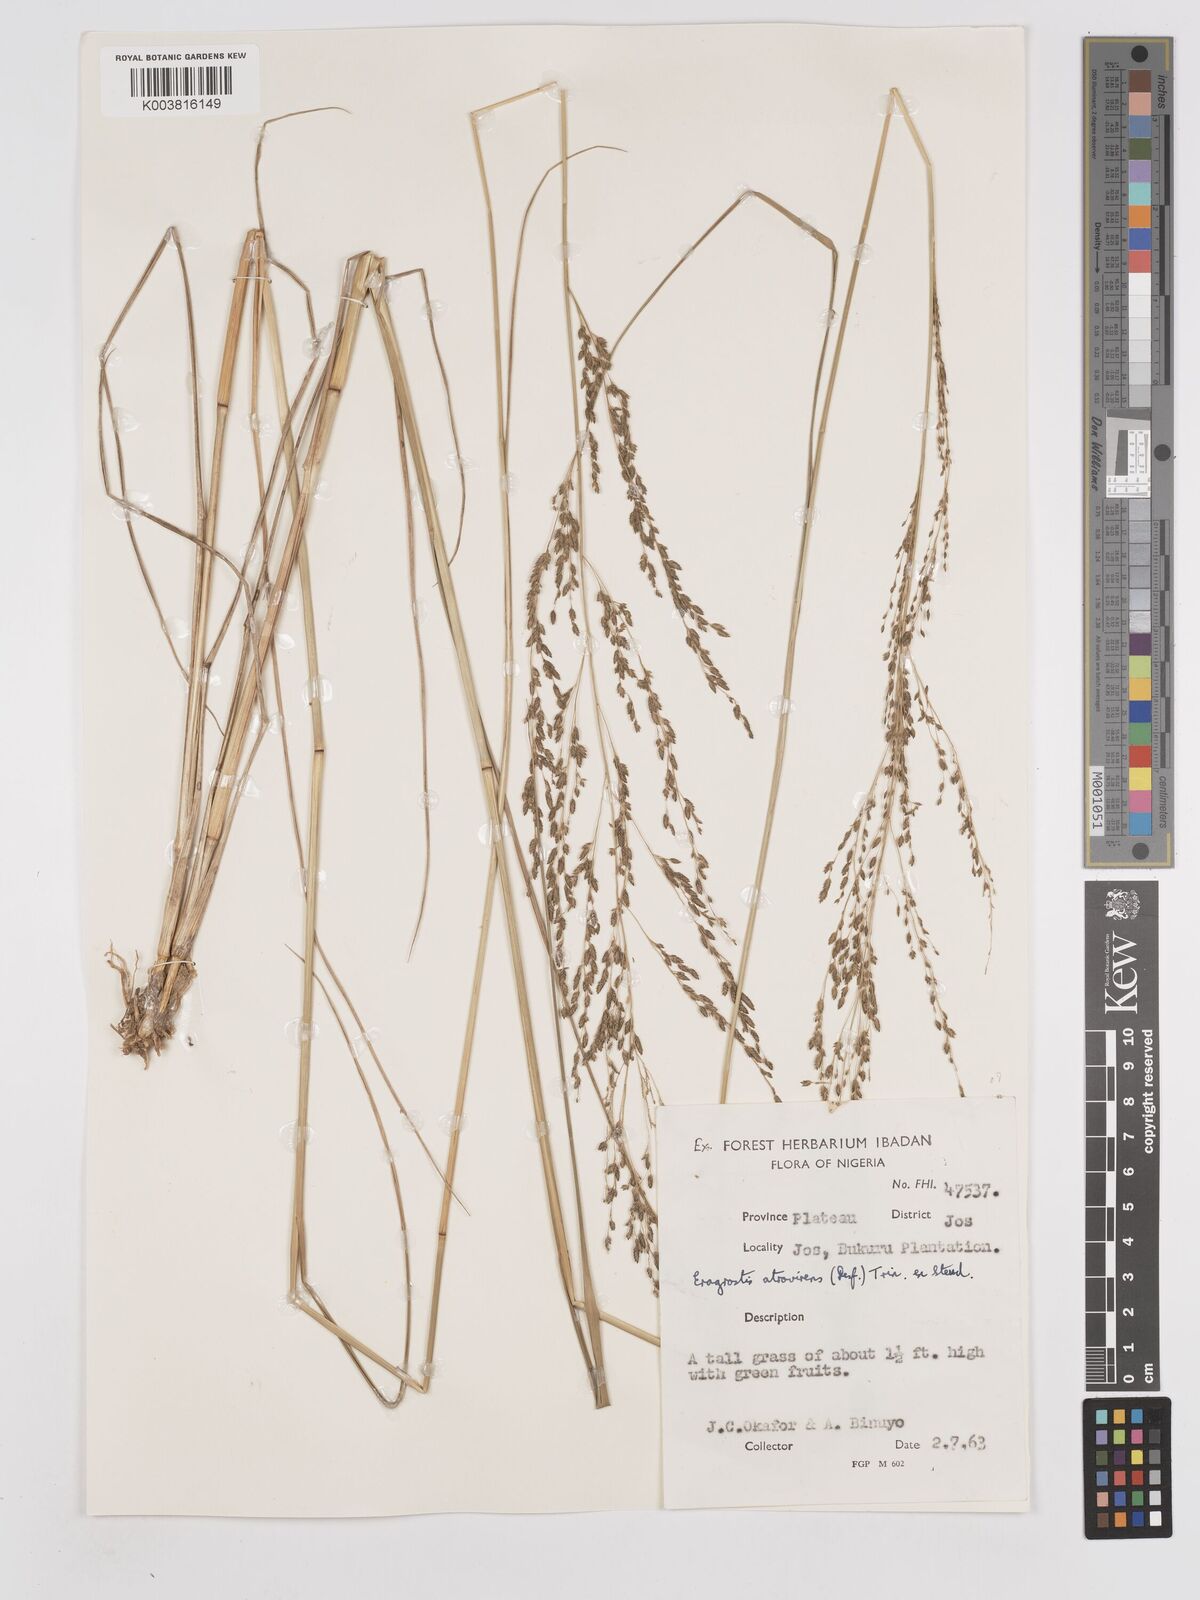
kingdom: Plantae
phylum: Tracheophyta
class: Liliopsida
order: Poales
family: Poaceae
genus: Eragrostis
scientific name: Eragrostis atrovirens
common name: Thalia lovegrass
